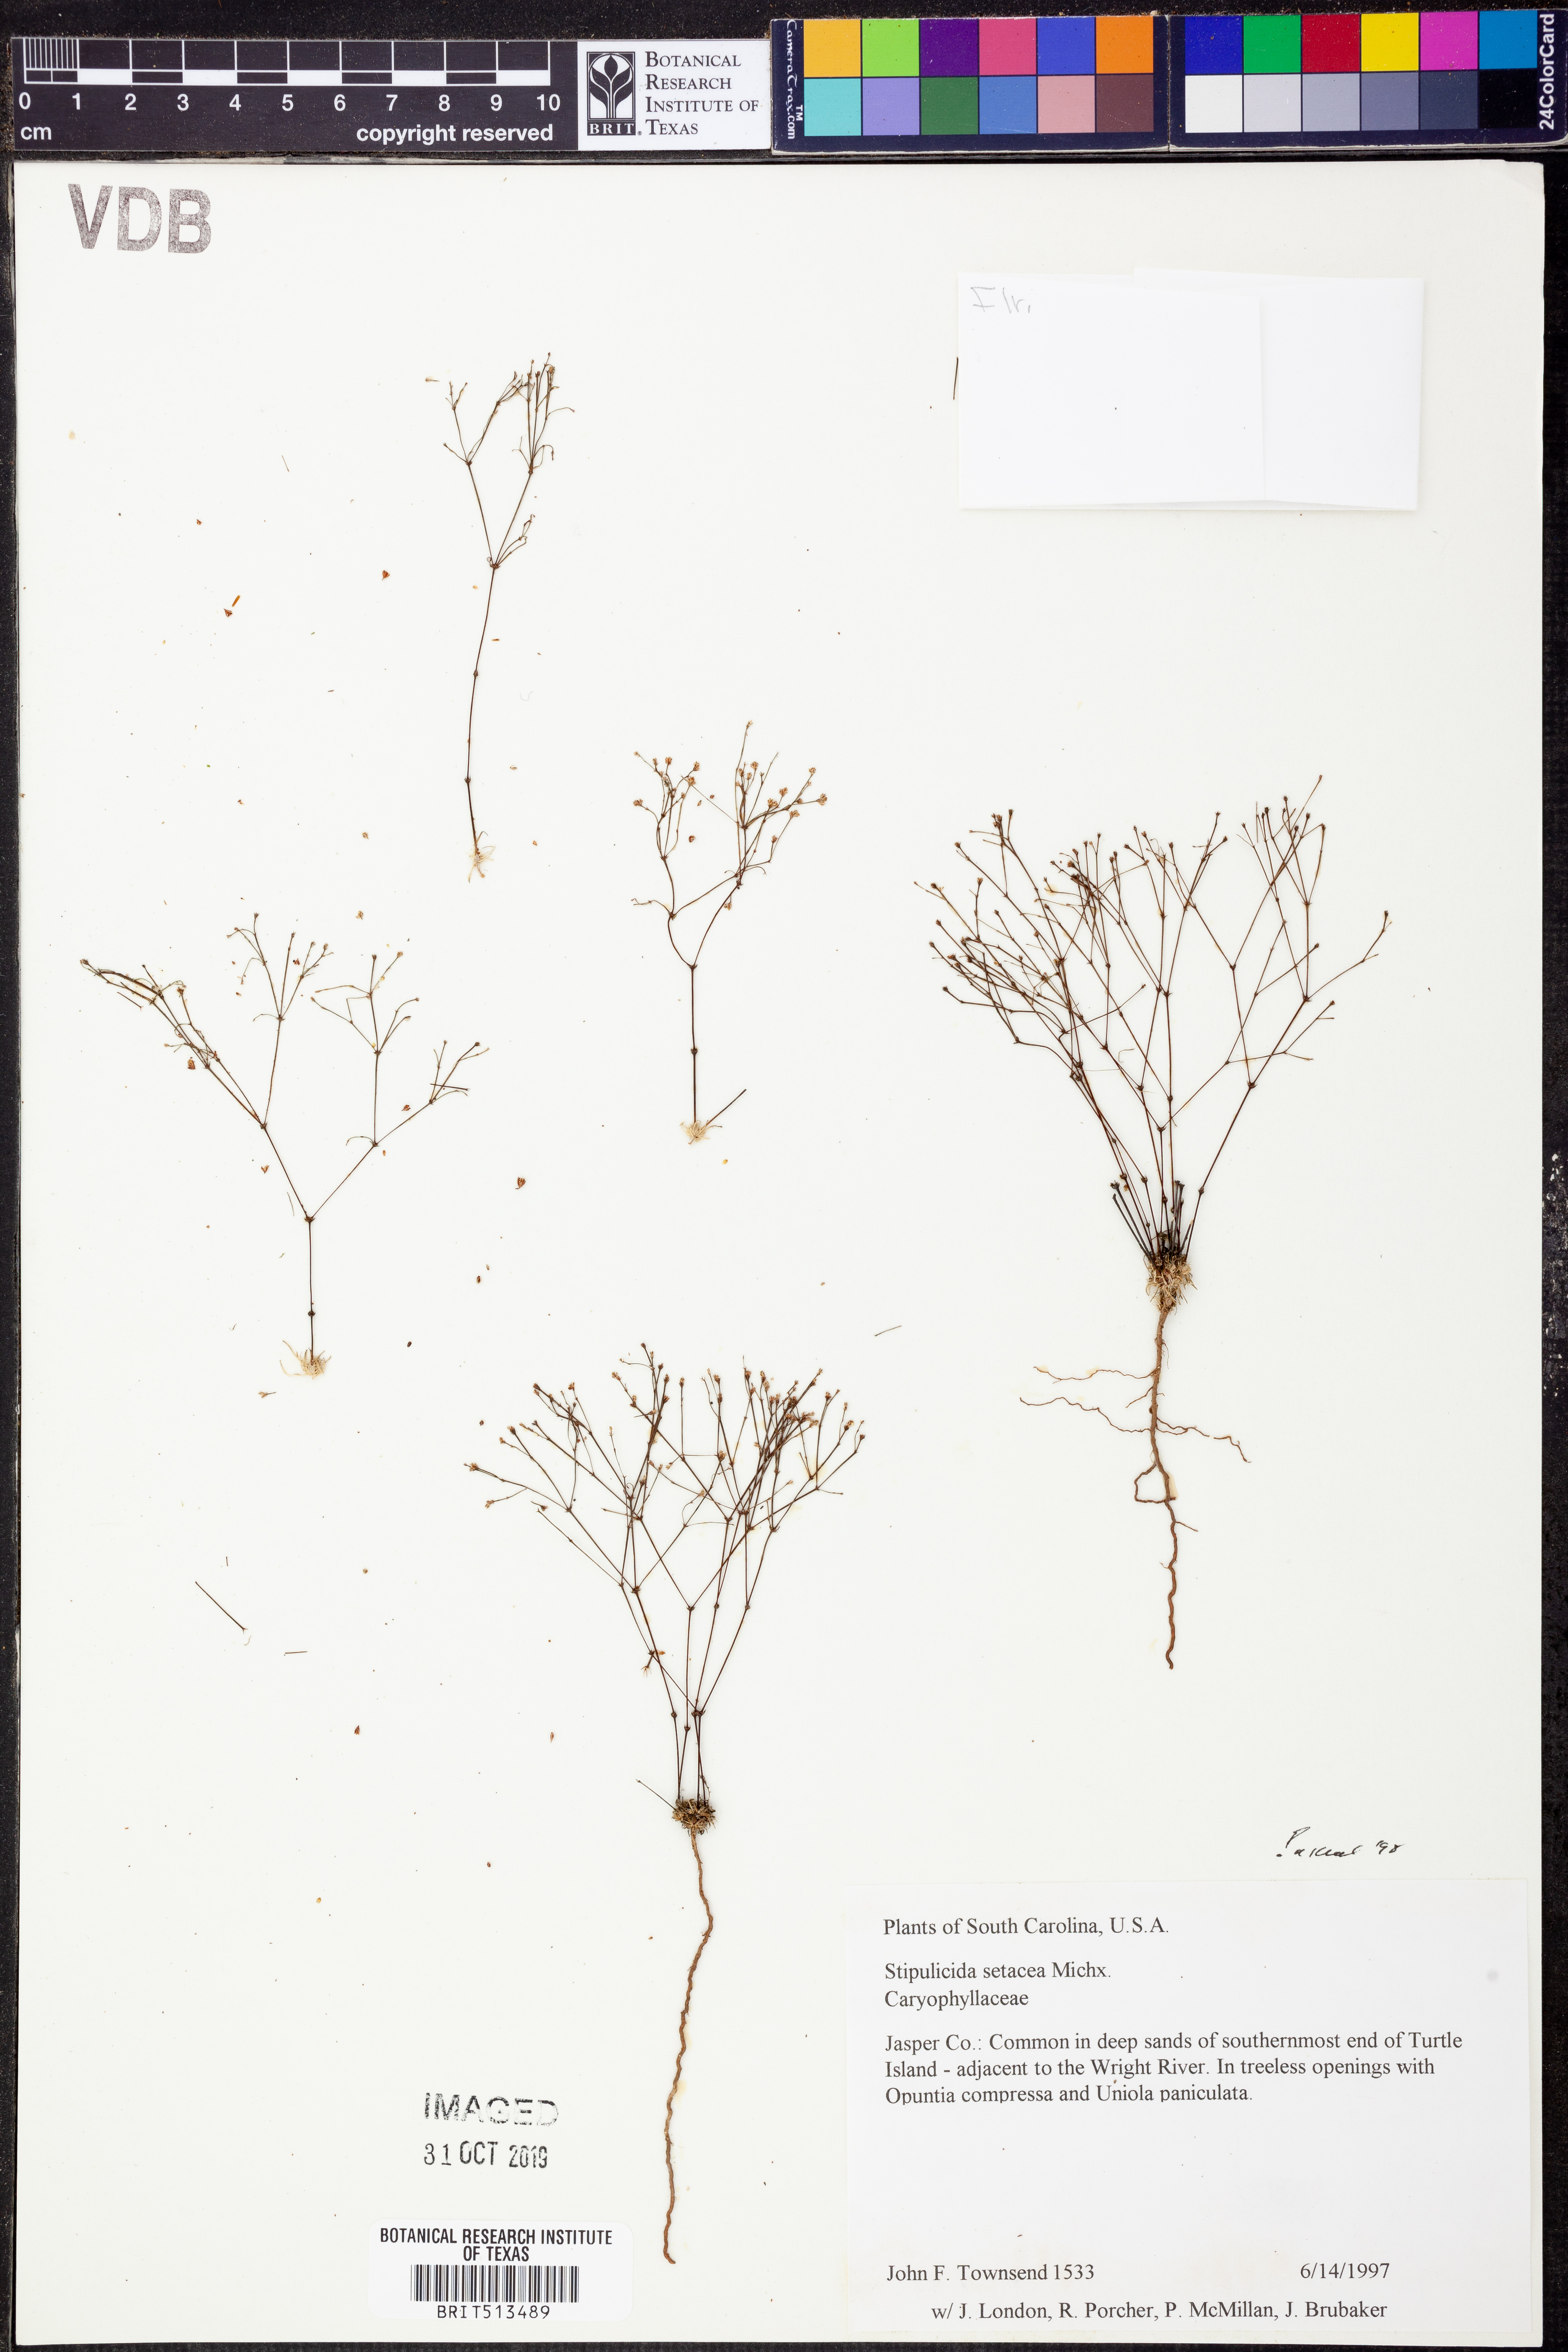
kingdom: Plantae
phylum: Tracheophyta
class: Magnoliopsida
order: Caryophyllales
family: Caryophyllaceae
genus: Stipulicida
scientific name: Stipulicida setacea
